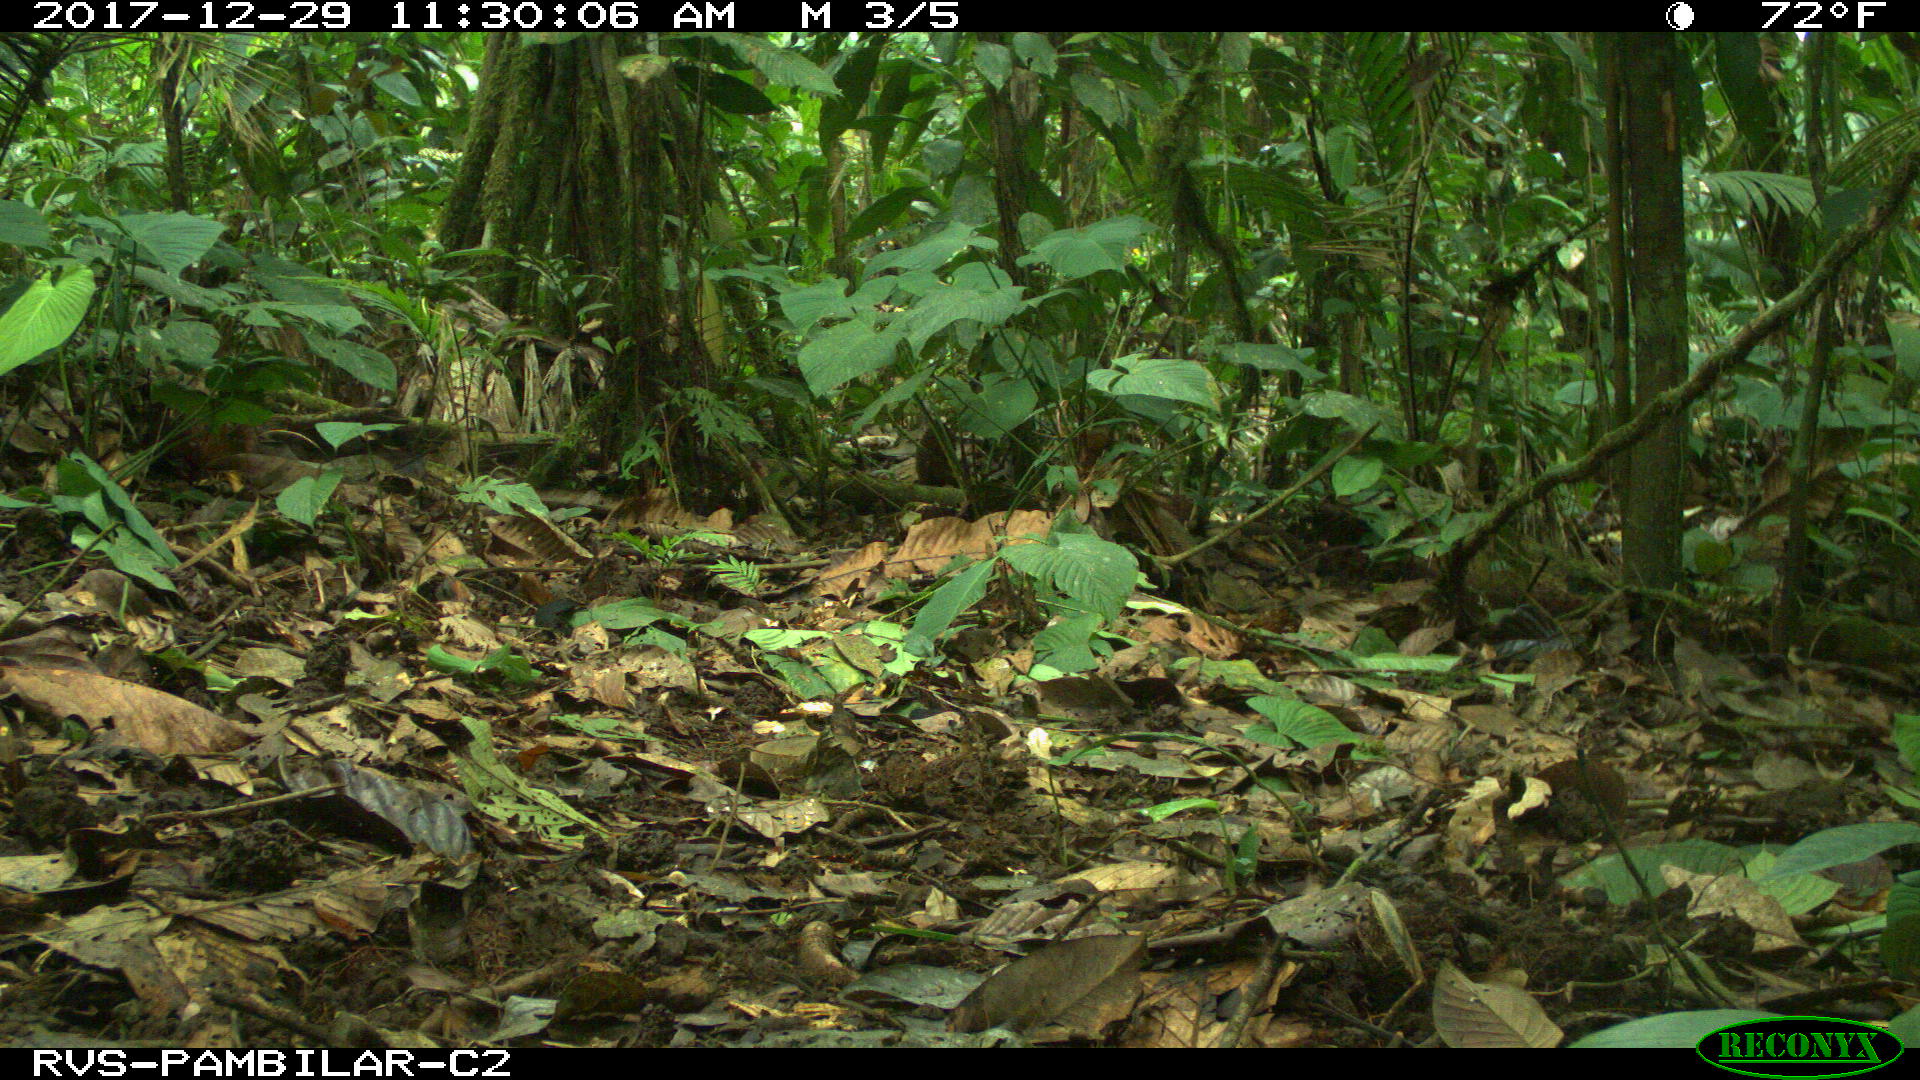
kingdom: Animalia
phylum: Chordata
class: Aves
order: Tinamiformes
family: Tinamidae
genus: Tinamus
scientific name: Tinamus major
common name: Great tinamou
